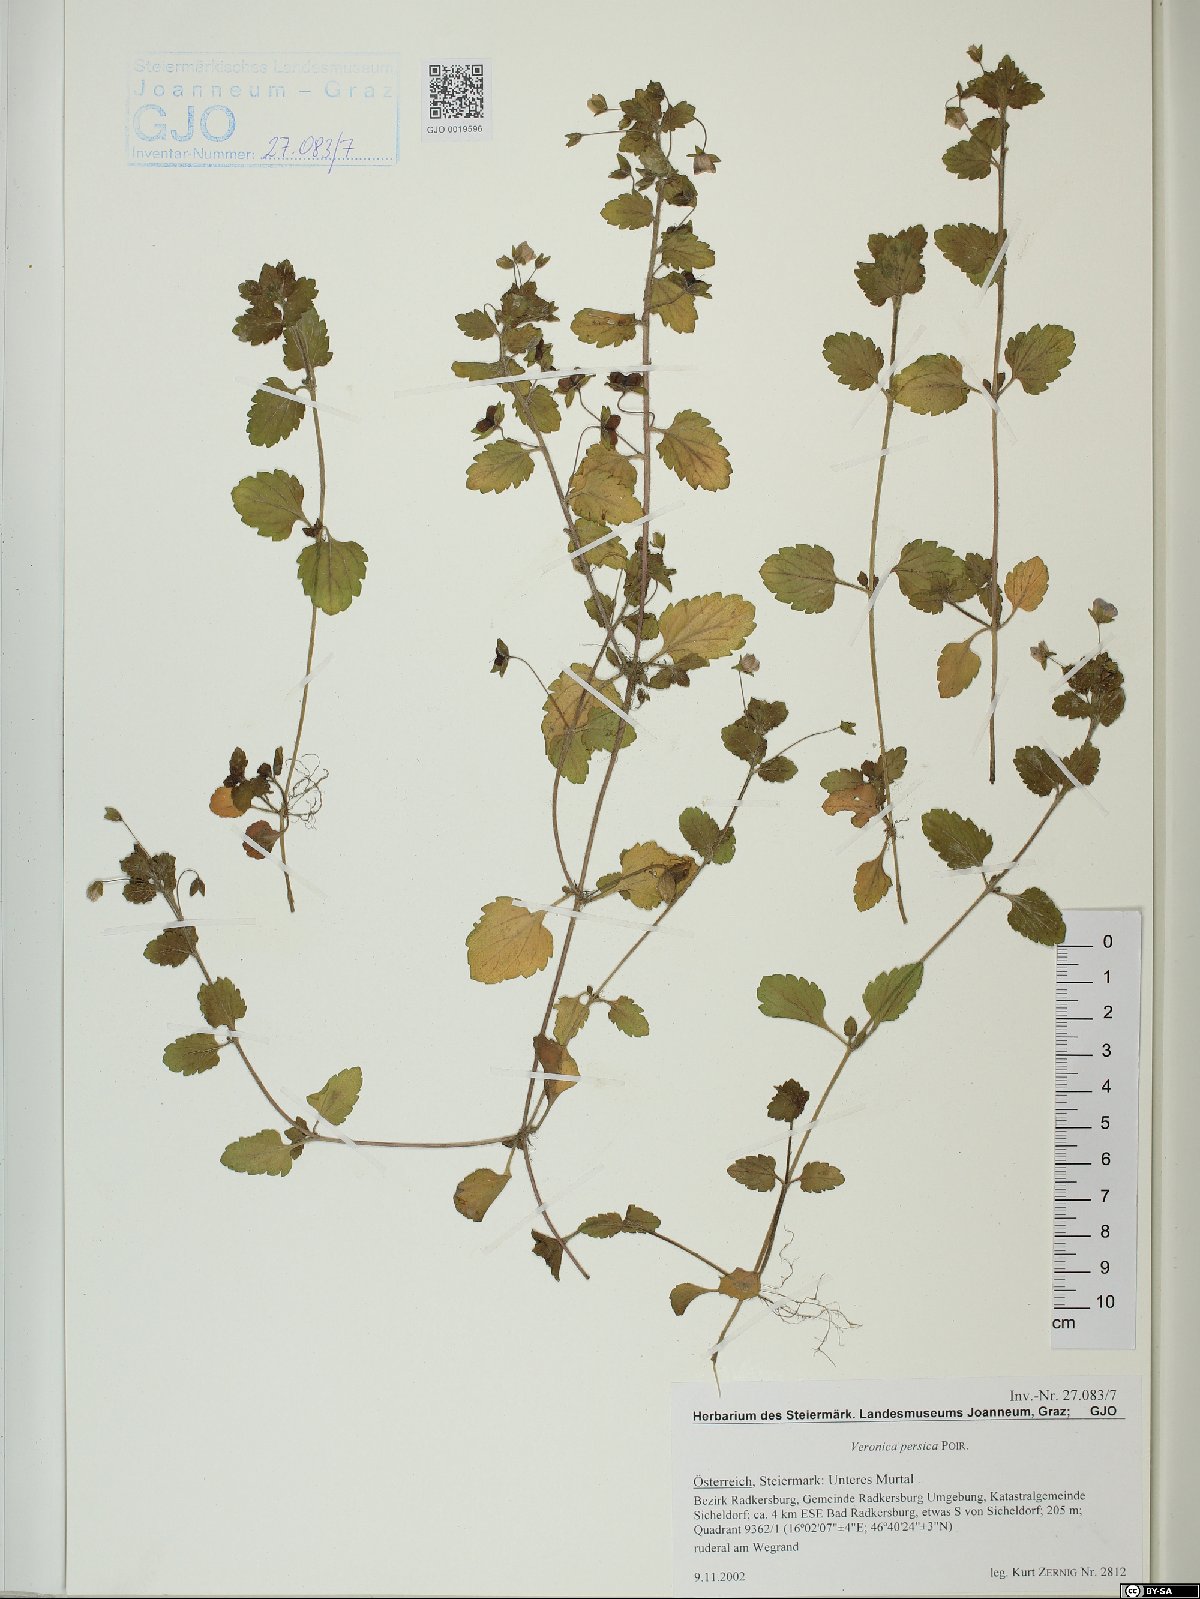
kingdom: Plantae
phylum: Tracheophyta
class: Magnoliopsida
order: Lamiales
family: Plantaginaceae
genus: Veronica
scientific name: Veronica persica
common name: Common field-speedwell
